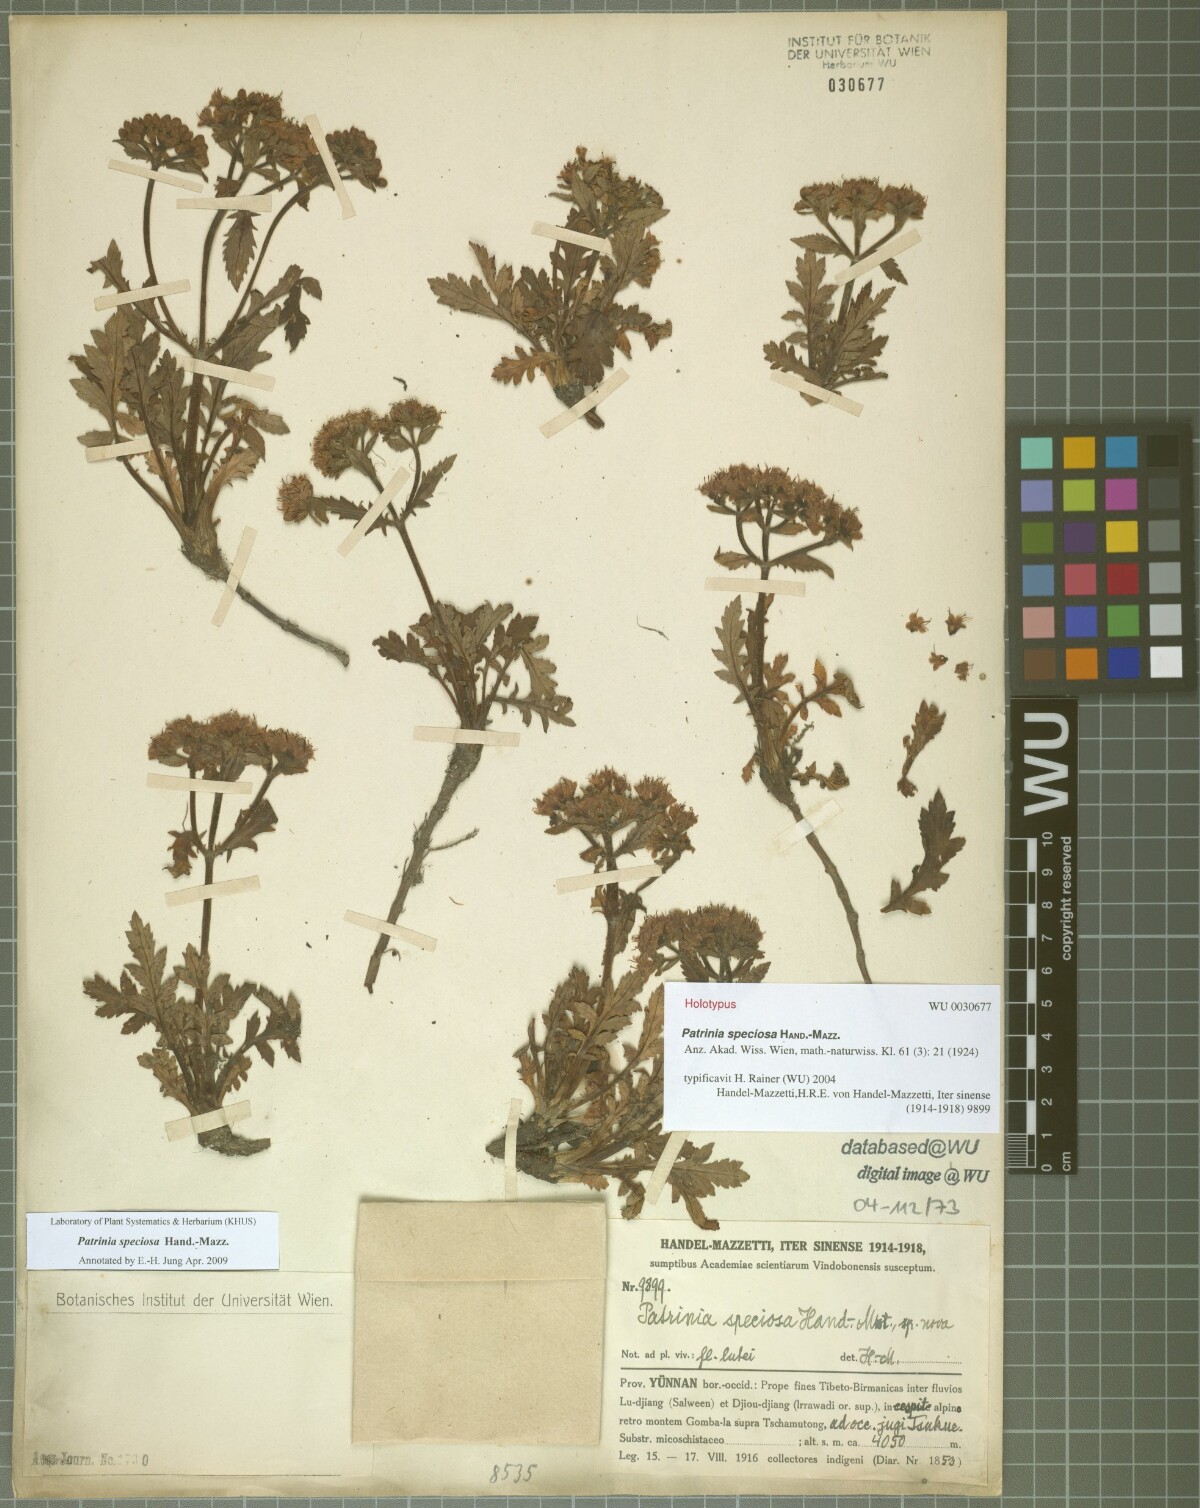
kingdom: Plantae
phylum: Tracheophyta
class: Magnoliopsida
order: Dipsacales
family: Caprifoliaceae
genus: Patrinia
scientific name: Patrinia speciosa
